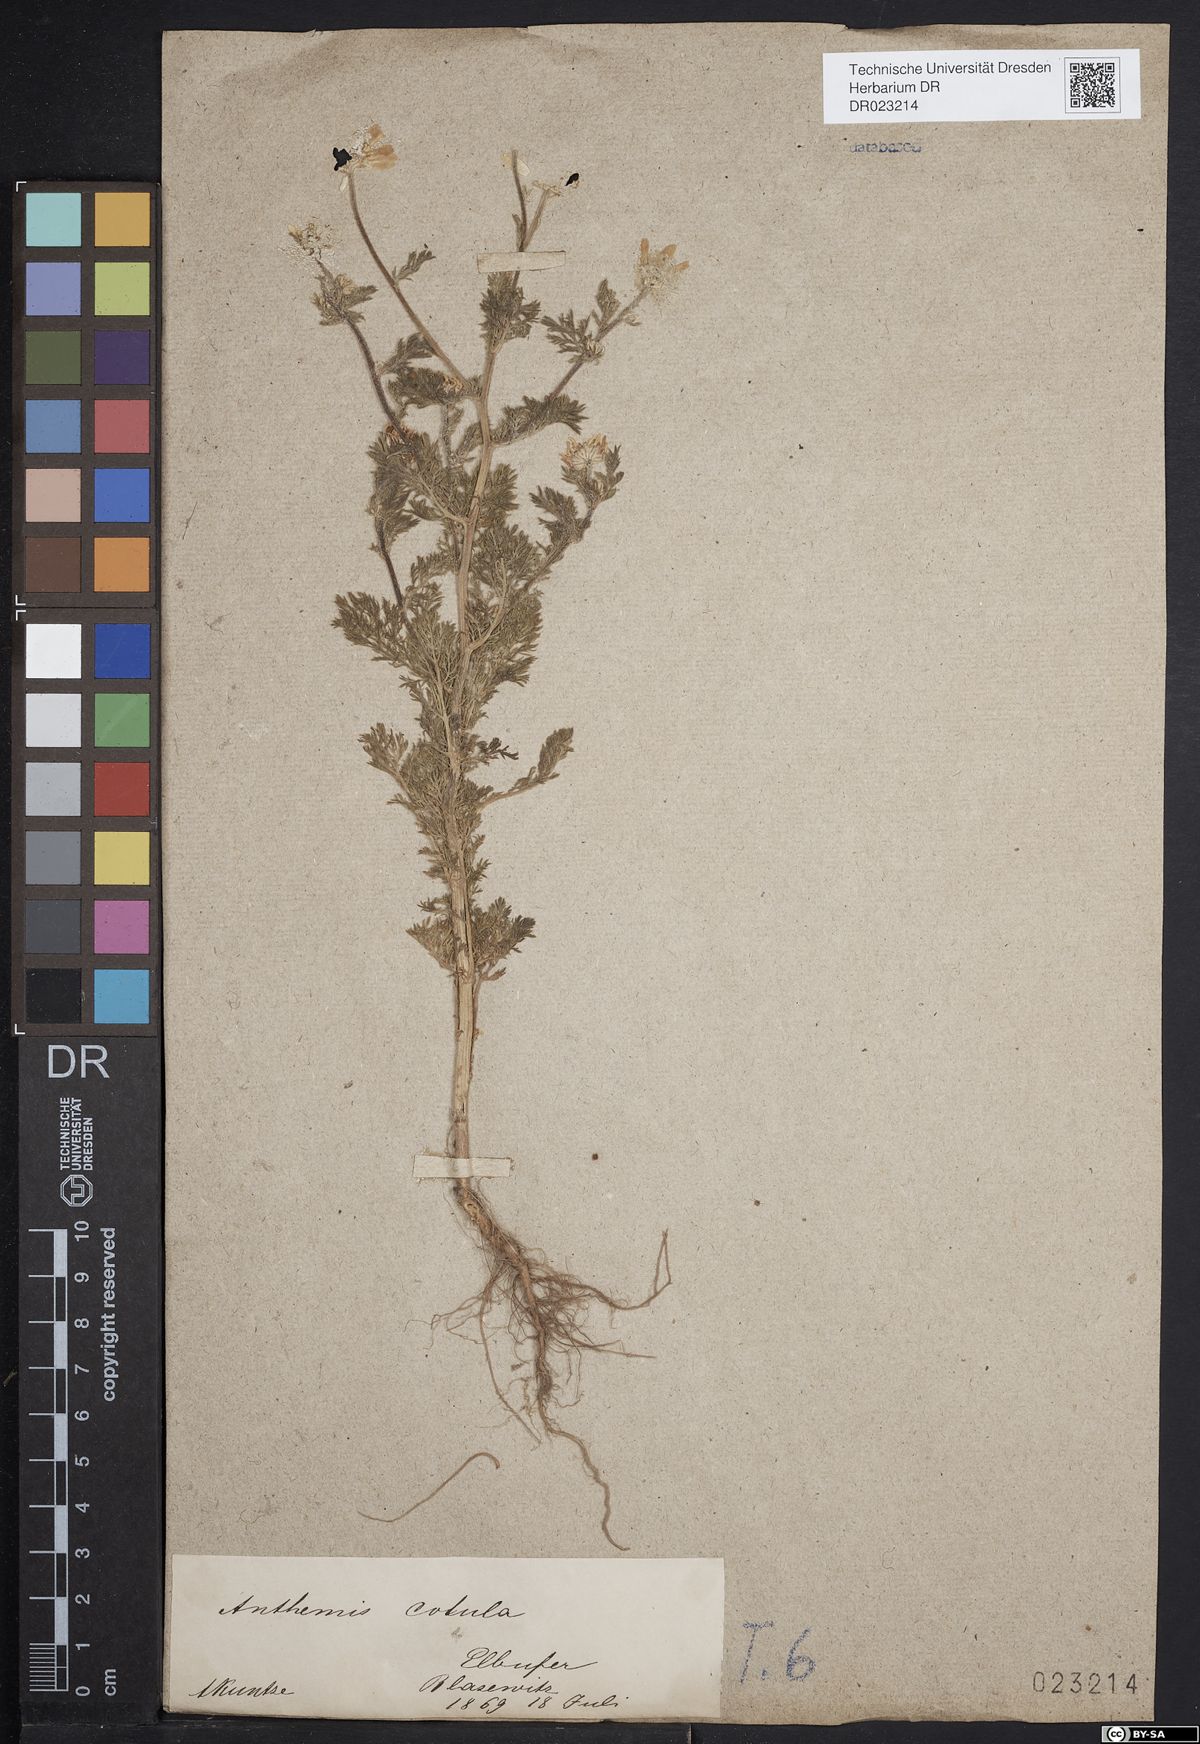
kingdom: Plantae
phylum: Tracheophyta
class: Magnoliopsida
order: Asterales
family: Asteraceae
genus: Anthemis
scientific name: Anthemis cotula
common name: Stinking chamomile
